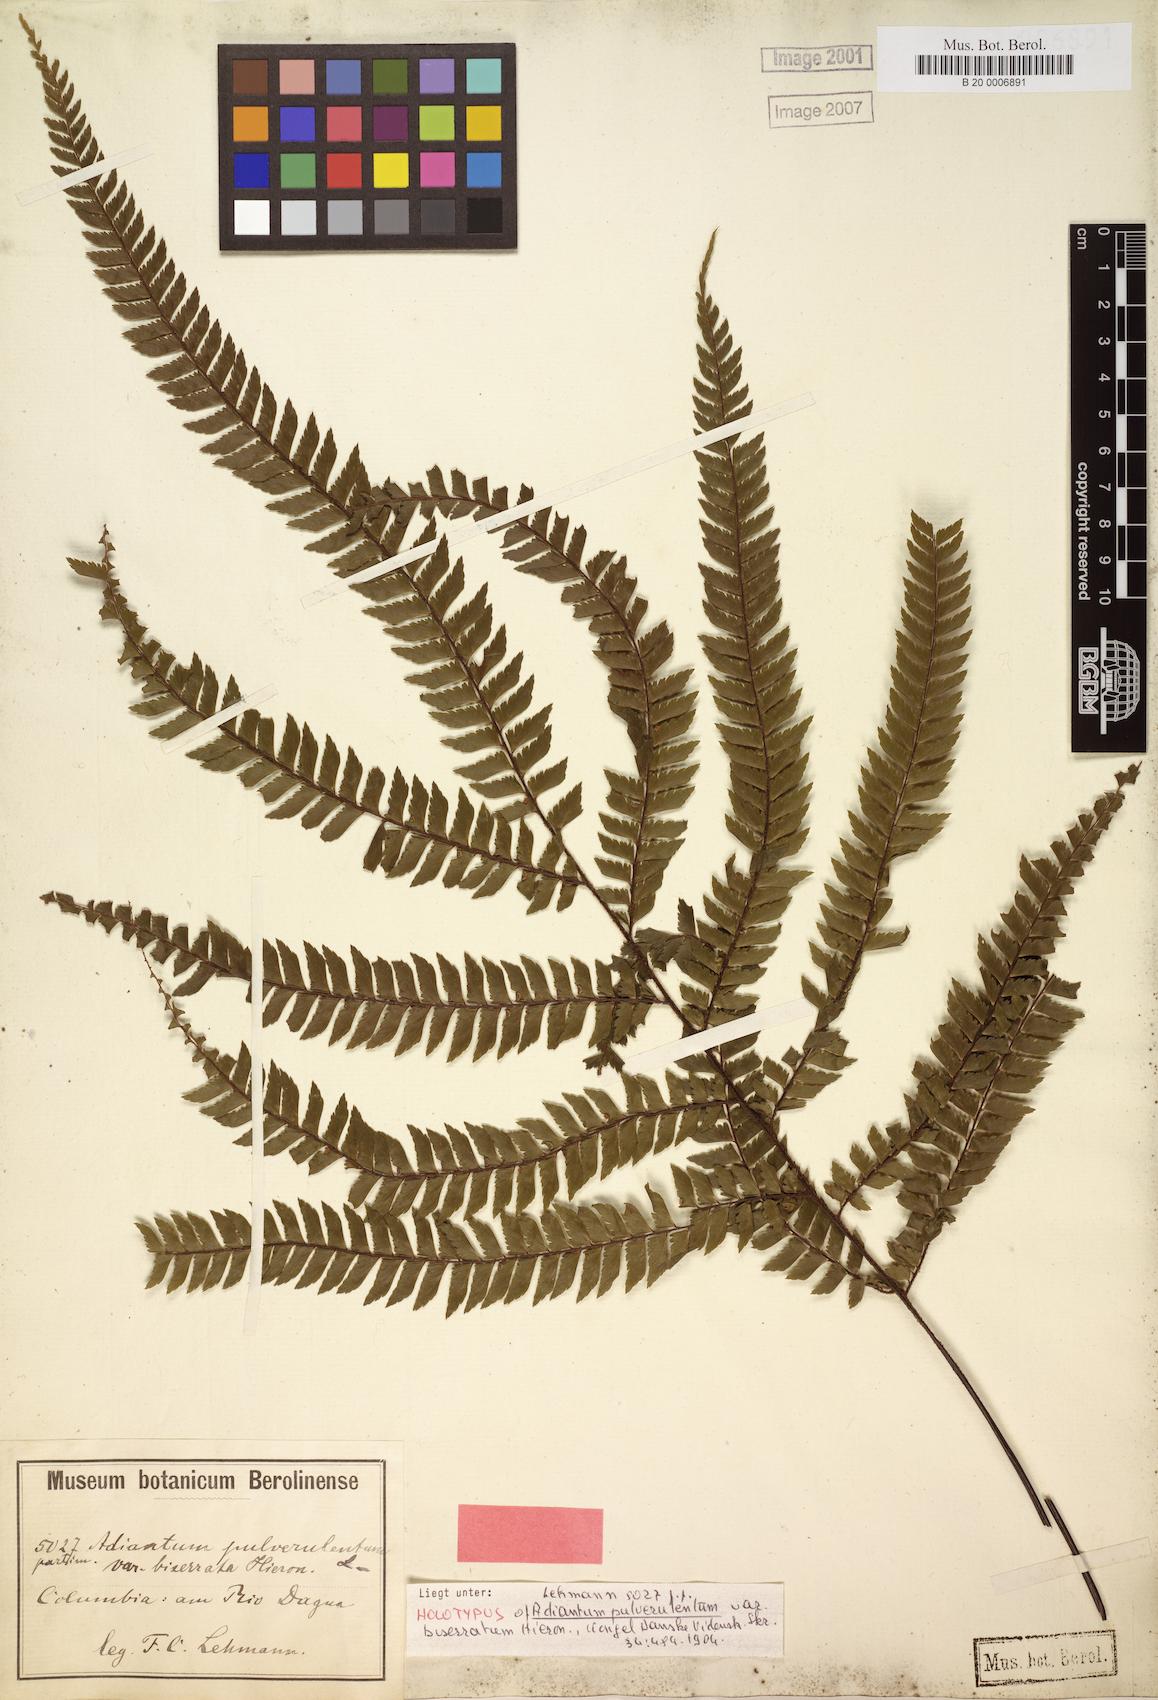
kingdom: Plantae
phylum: Tracheophyta
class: Polypodiopsida
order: Polypodiales
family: Pteridaceae
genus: Adiantum
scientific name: Adiantum pulverulentum
